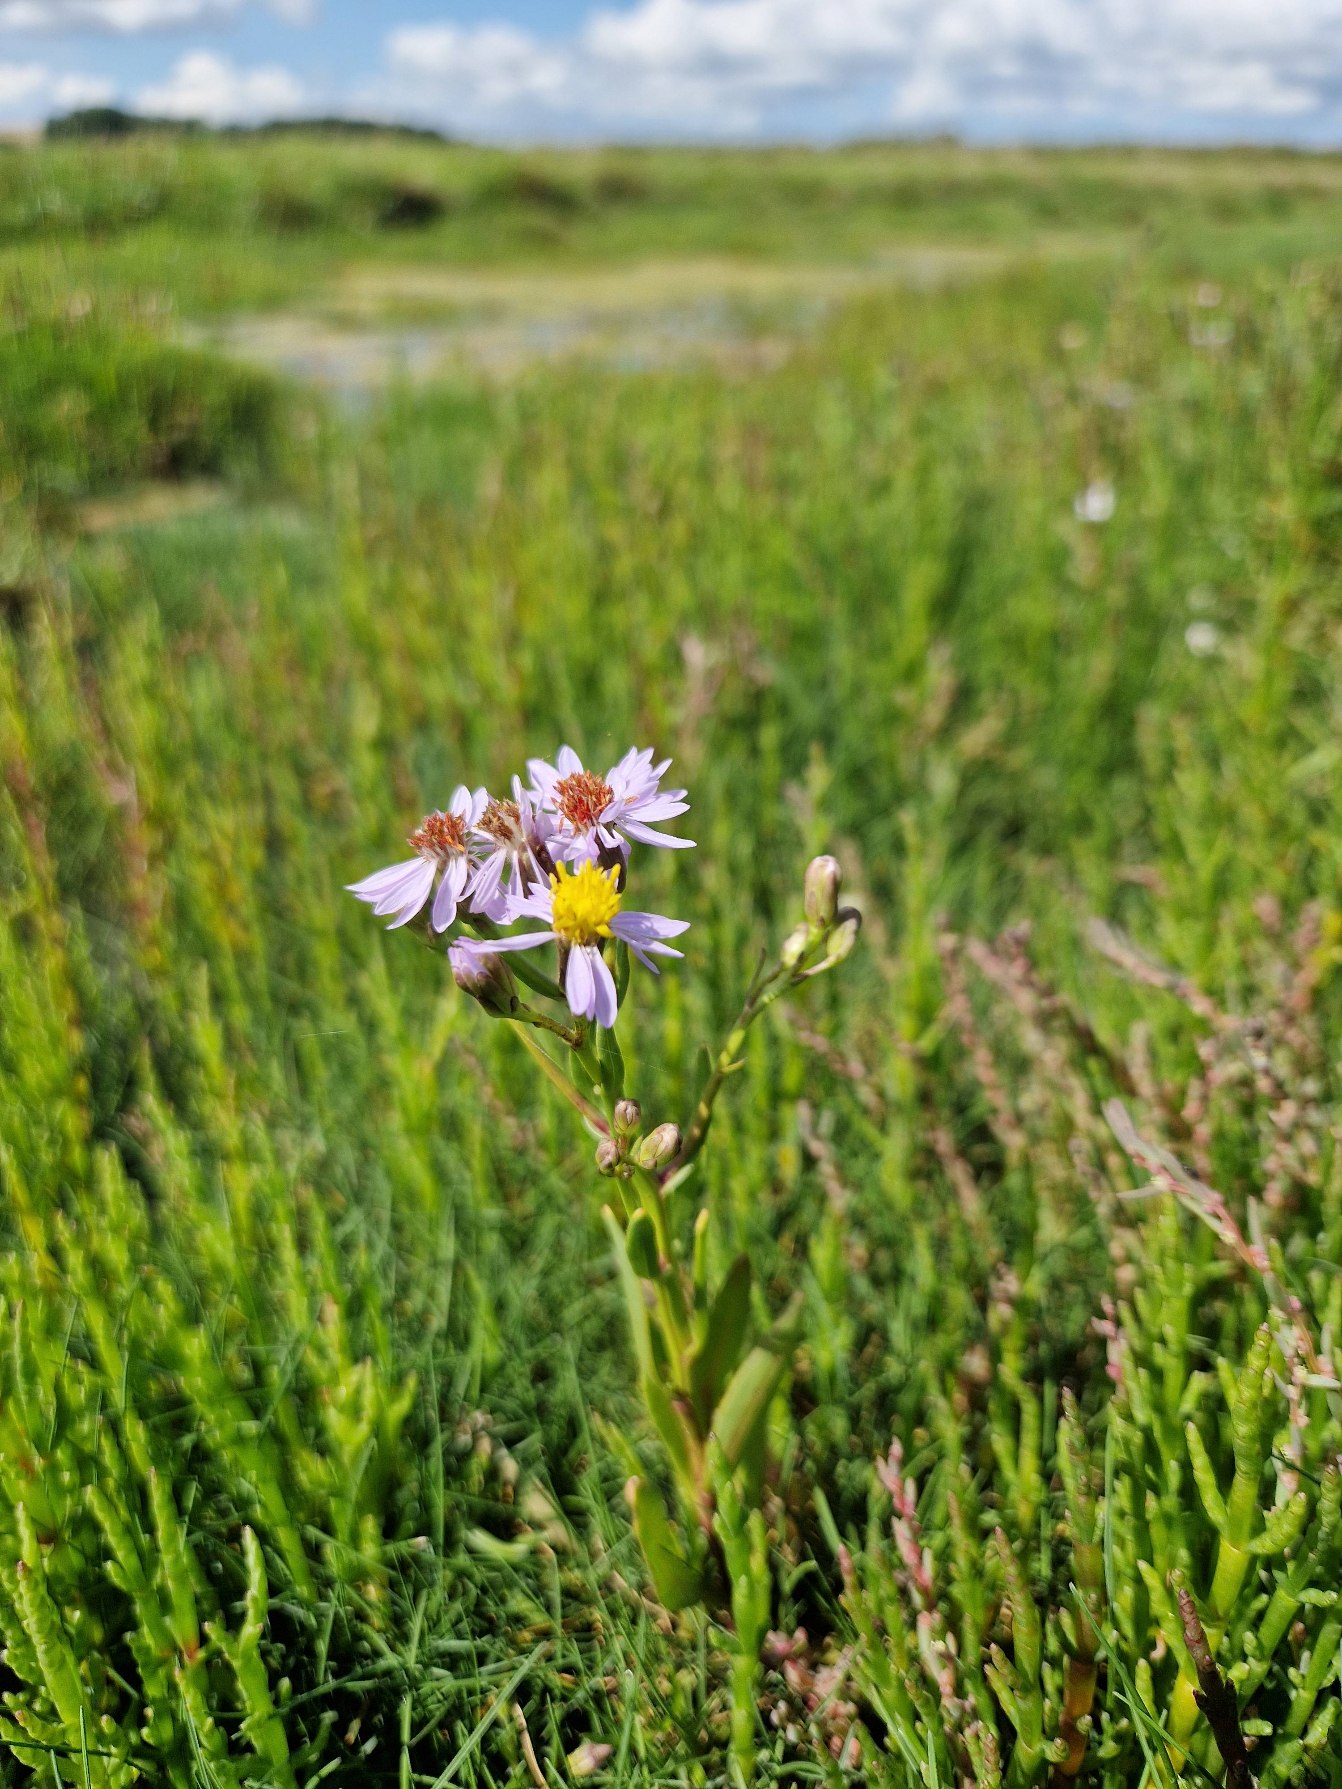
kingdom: Plantae
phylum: Tracheophyta
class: Magnoliopsida
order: Asterales
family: Asteraceae
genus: Tripolium
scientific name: Tripolium pannonicum
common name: Strandasters
